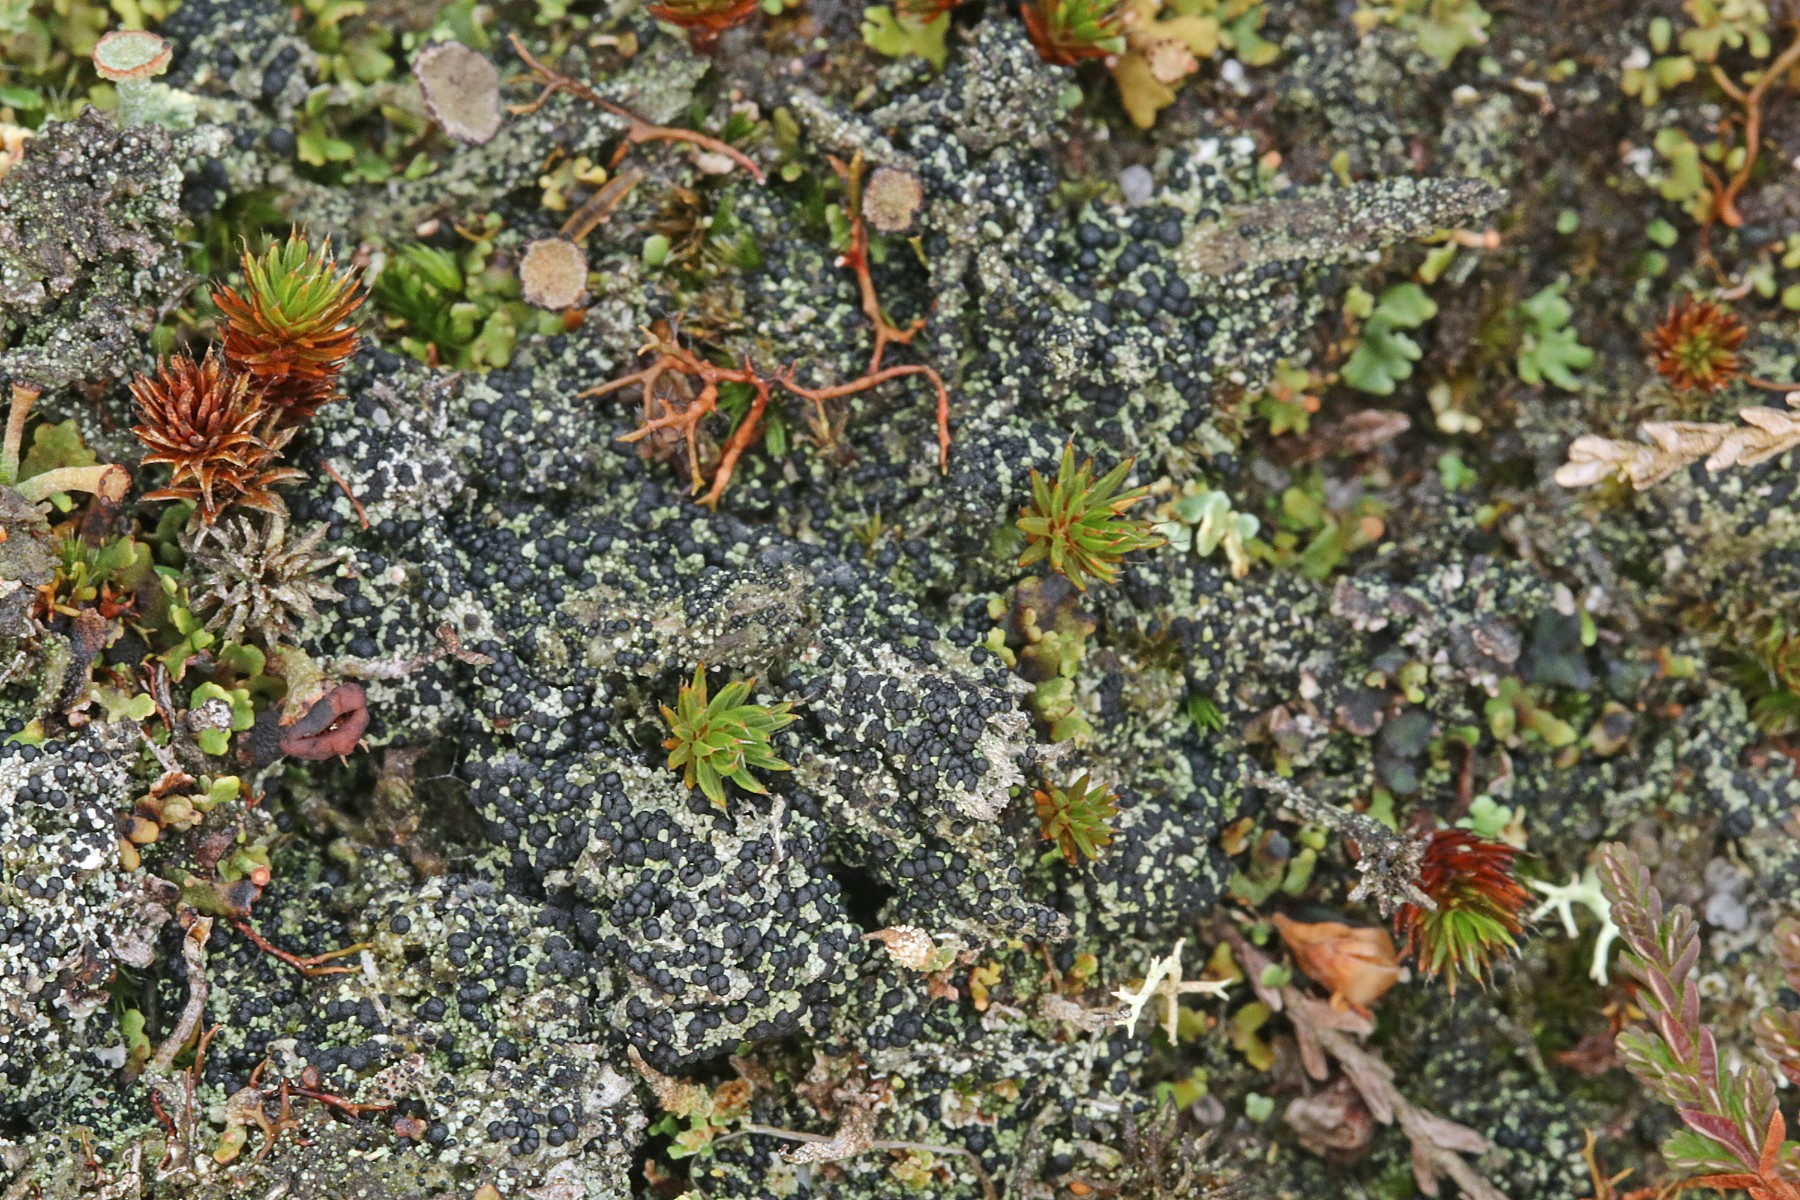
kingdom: Fungi
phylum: Ascomycota
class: Lecanoromycetes
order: Lecanorales
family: Byssolomataceae
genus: Micarea
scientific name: Micarea lignaria
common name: tørve-knaplav
